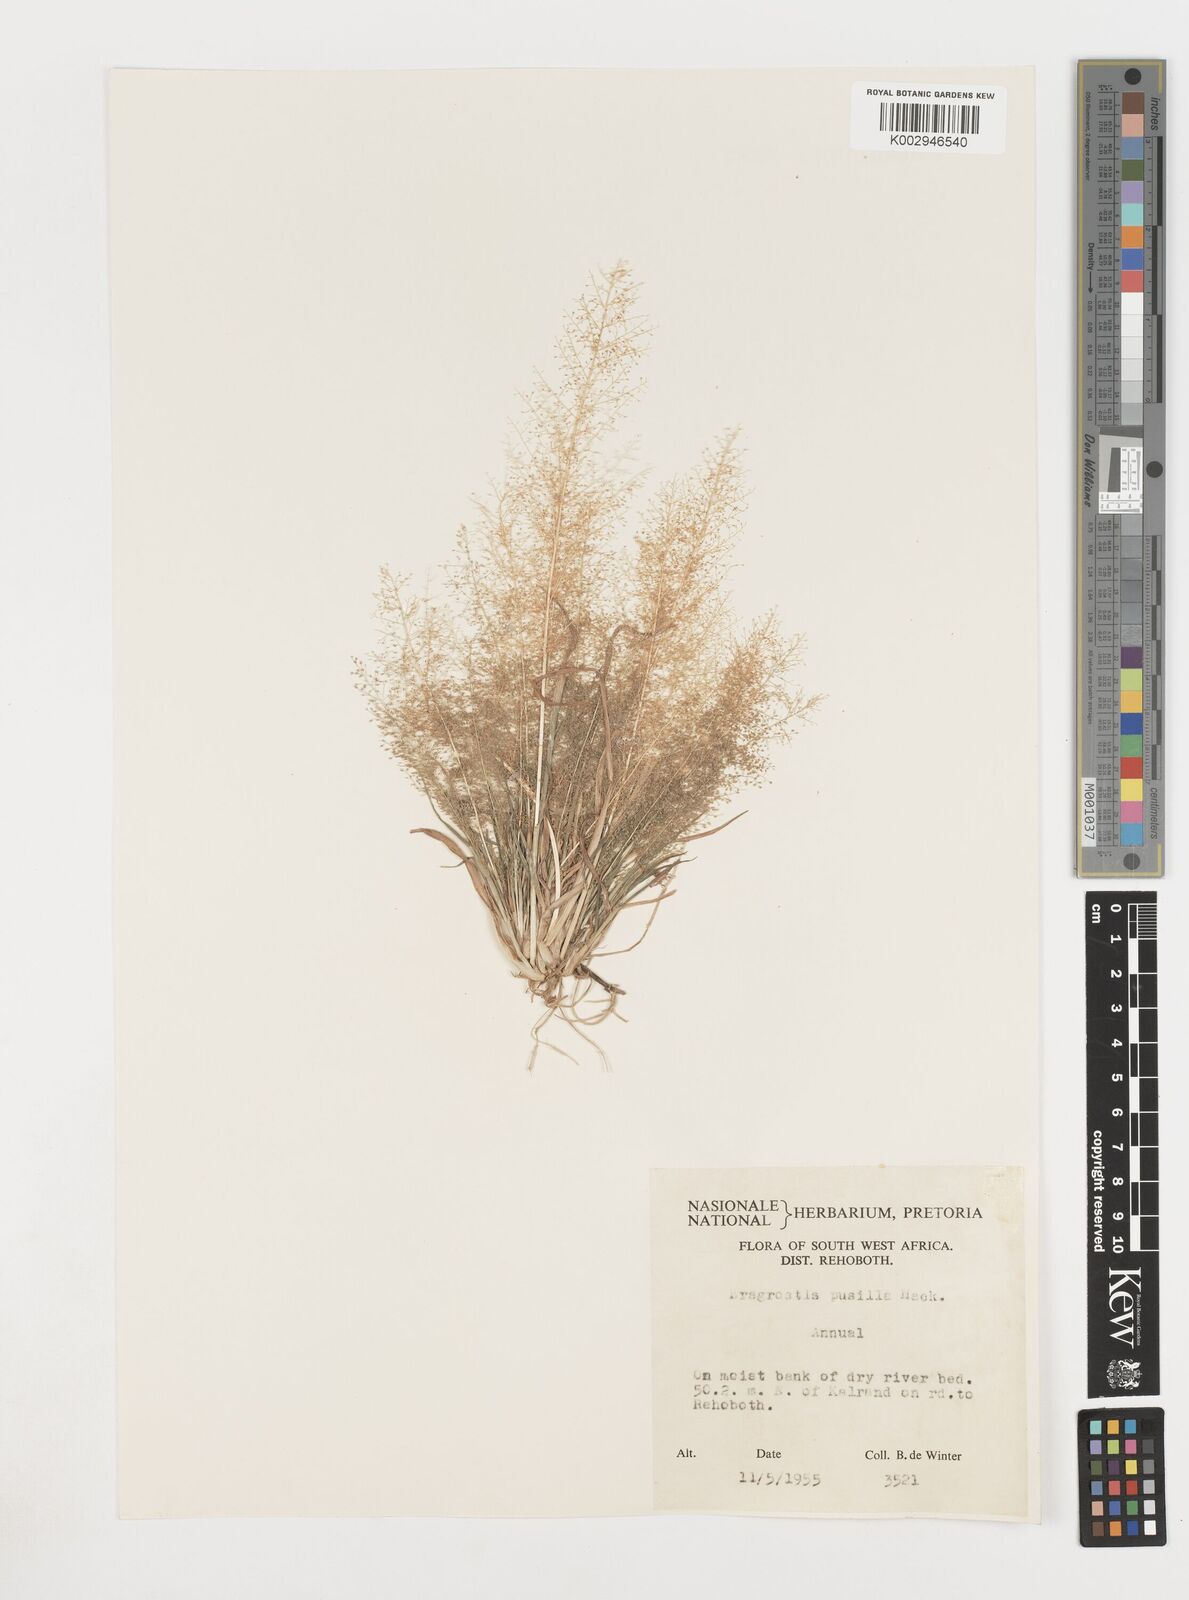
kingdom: Plantae
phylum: Tracheophyta
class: Liliopsida
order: Poales
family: Poaceae
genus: Eragrostis
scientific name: Eragrostis pusilla
